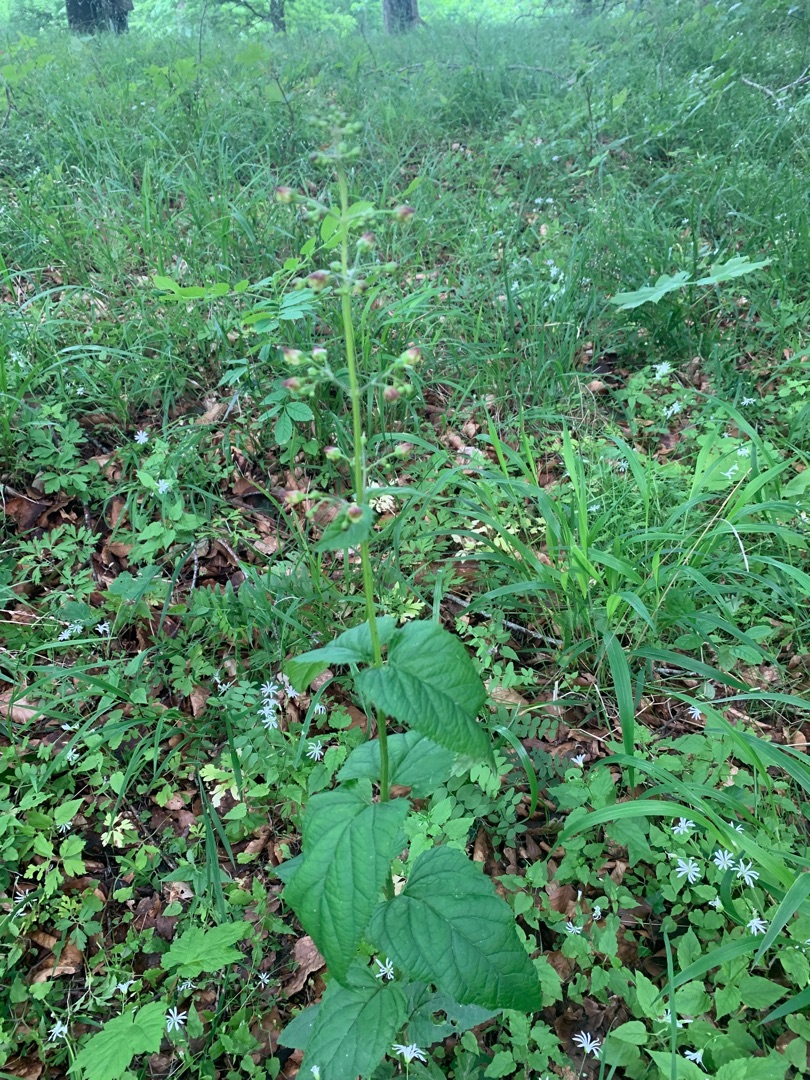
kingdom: Plantae
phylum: Tracheophyta
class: Magnoliopsida
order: Lamiales
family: Scrophulariaceae
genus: Scrophularia
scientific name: Scrophularia nodosa
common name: Knoldet brunrod
